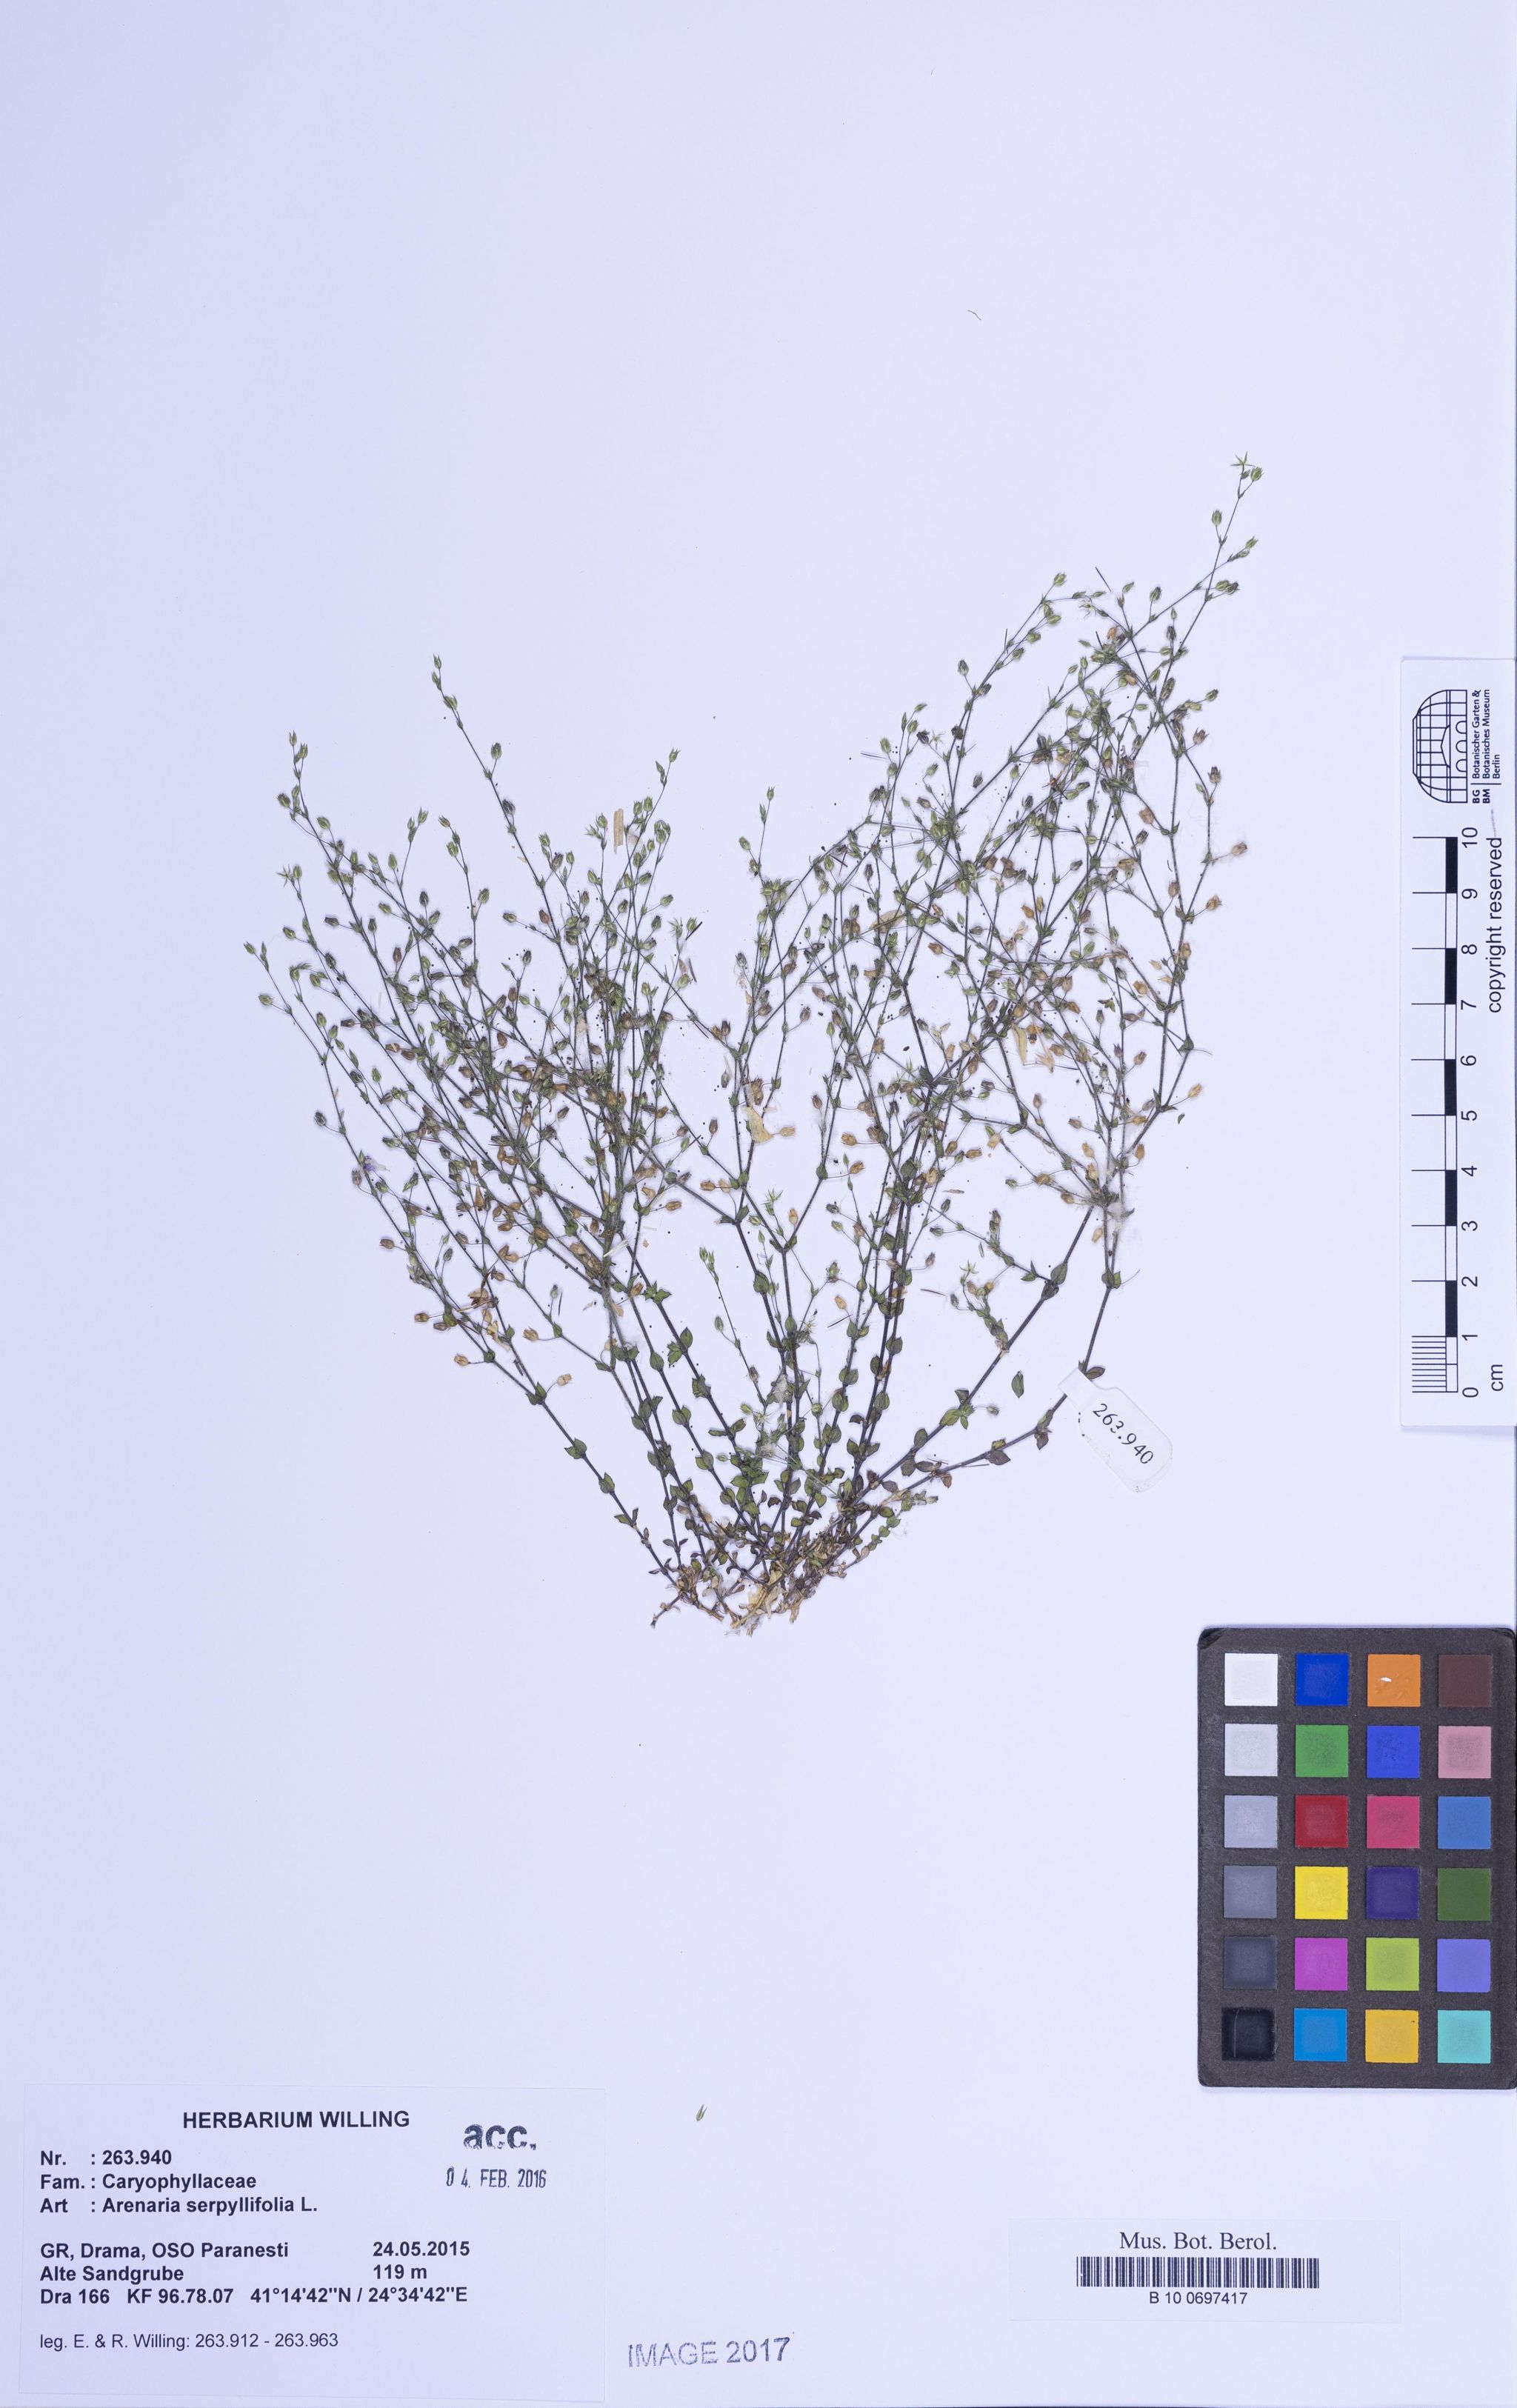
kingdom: Plantae
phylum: Tracheophyta
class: Magnoliopsida
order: Caryophyllales
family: Caryophyllaceae
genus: Arenaria
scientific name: Arenaria serpyllifolia
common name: Thyme-leaved sandwort
